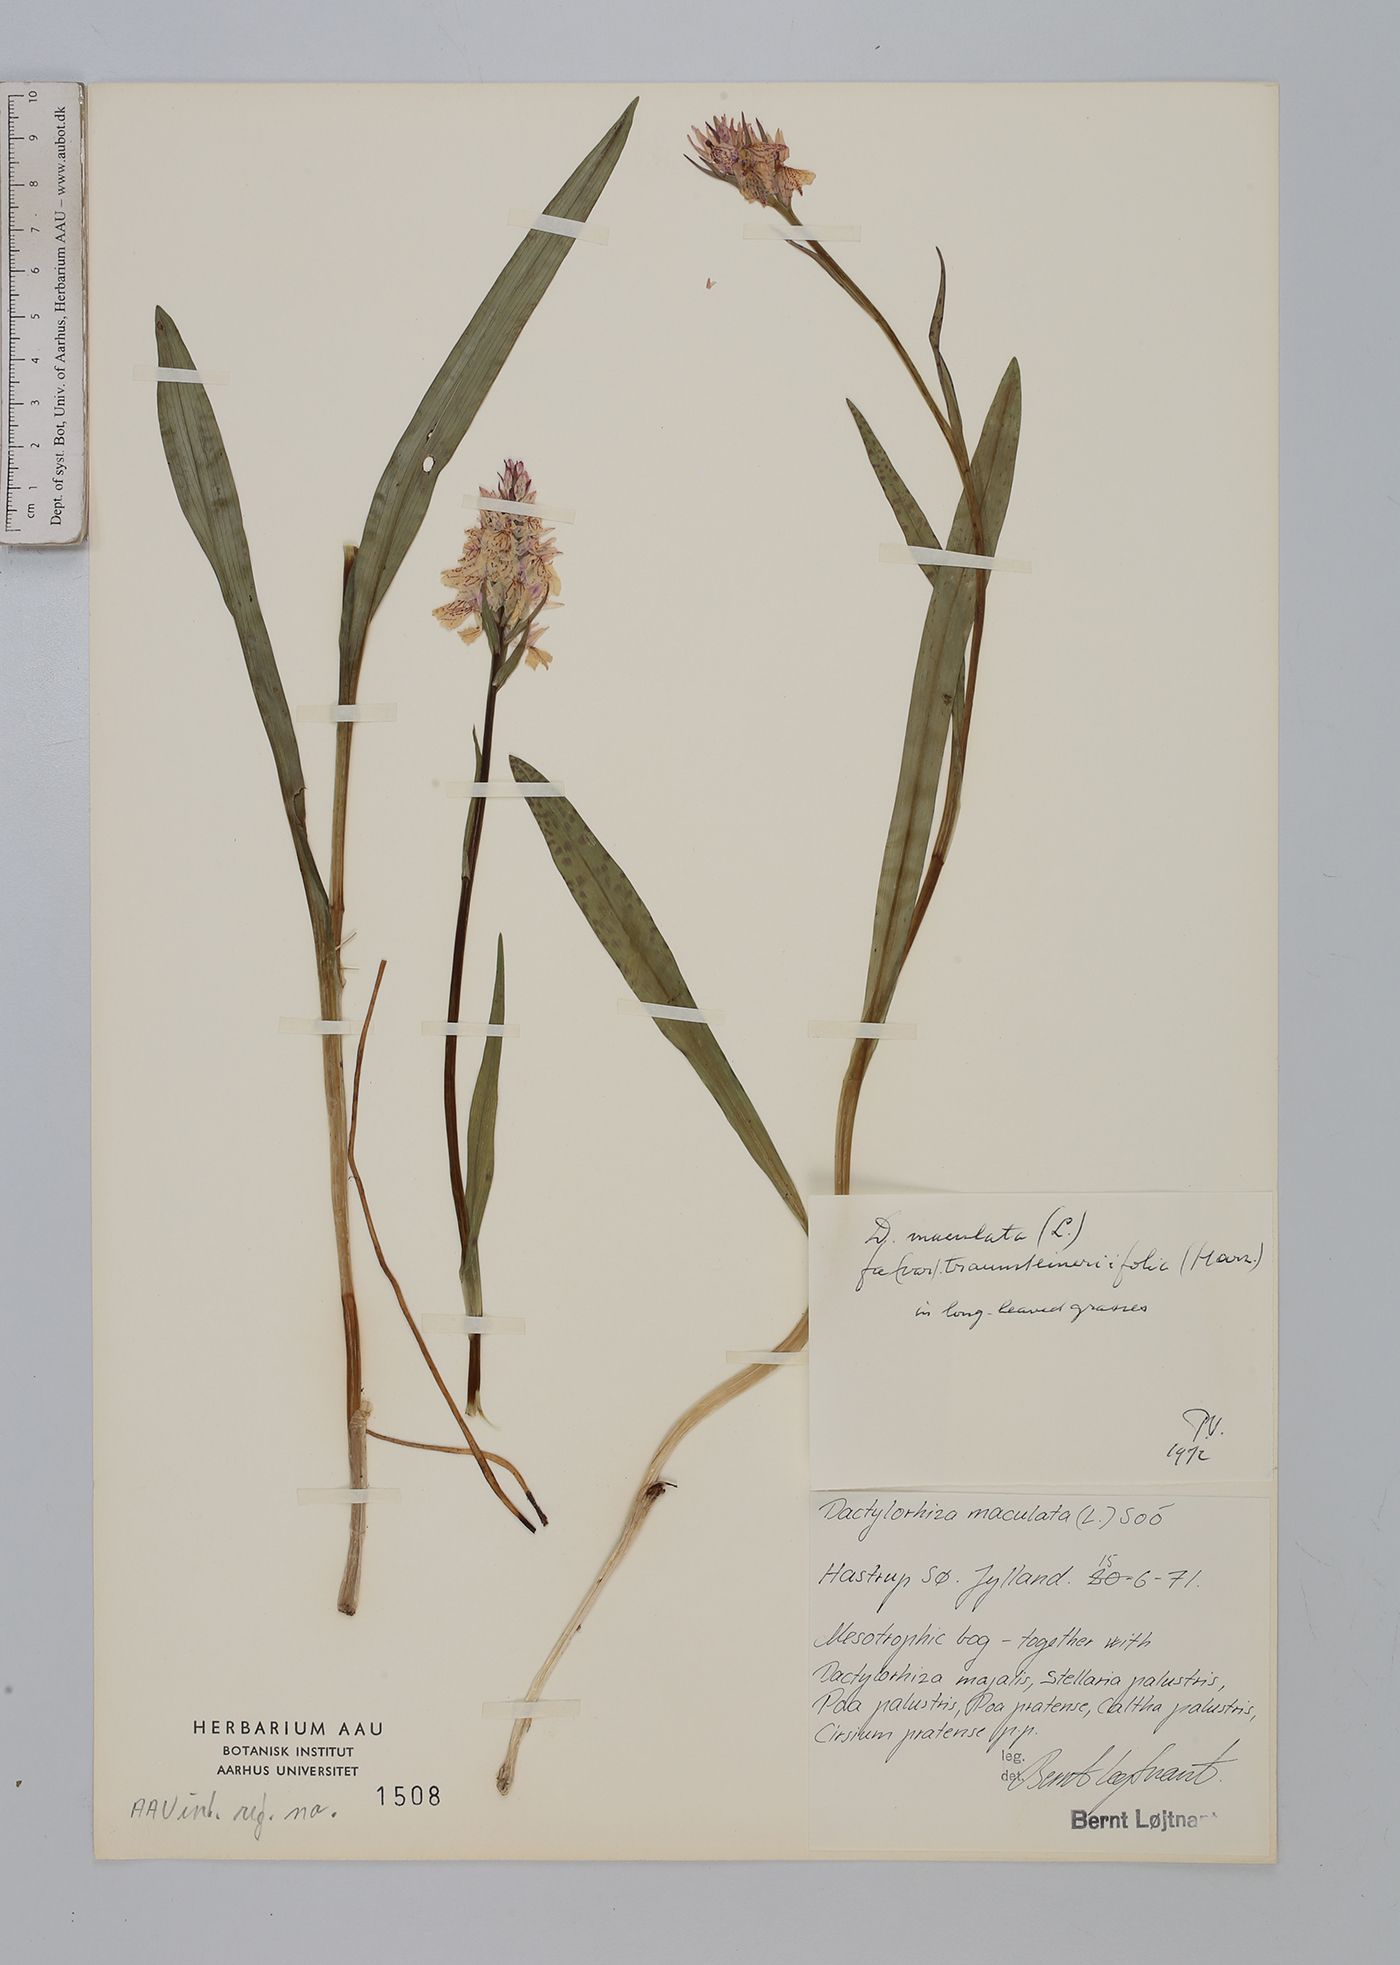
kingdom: Plantae
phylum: Tracheophyta
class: Liliopsida
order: Asparagales
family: Orchidaceae
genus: Dactylorhiza
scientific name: Dactylorhiza maculata
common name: Heath spotted-orchid
